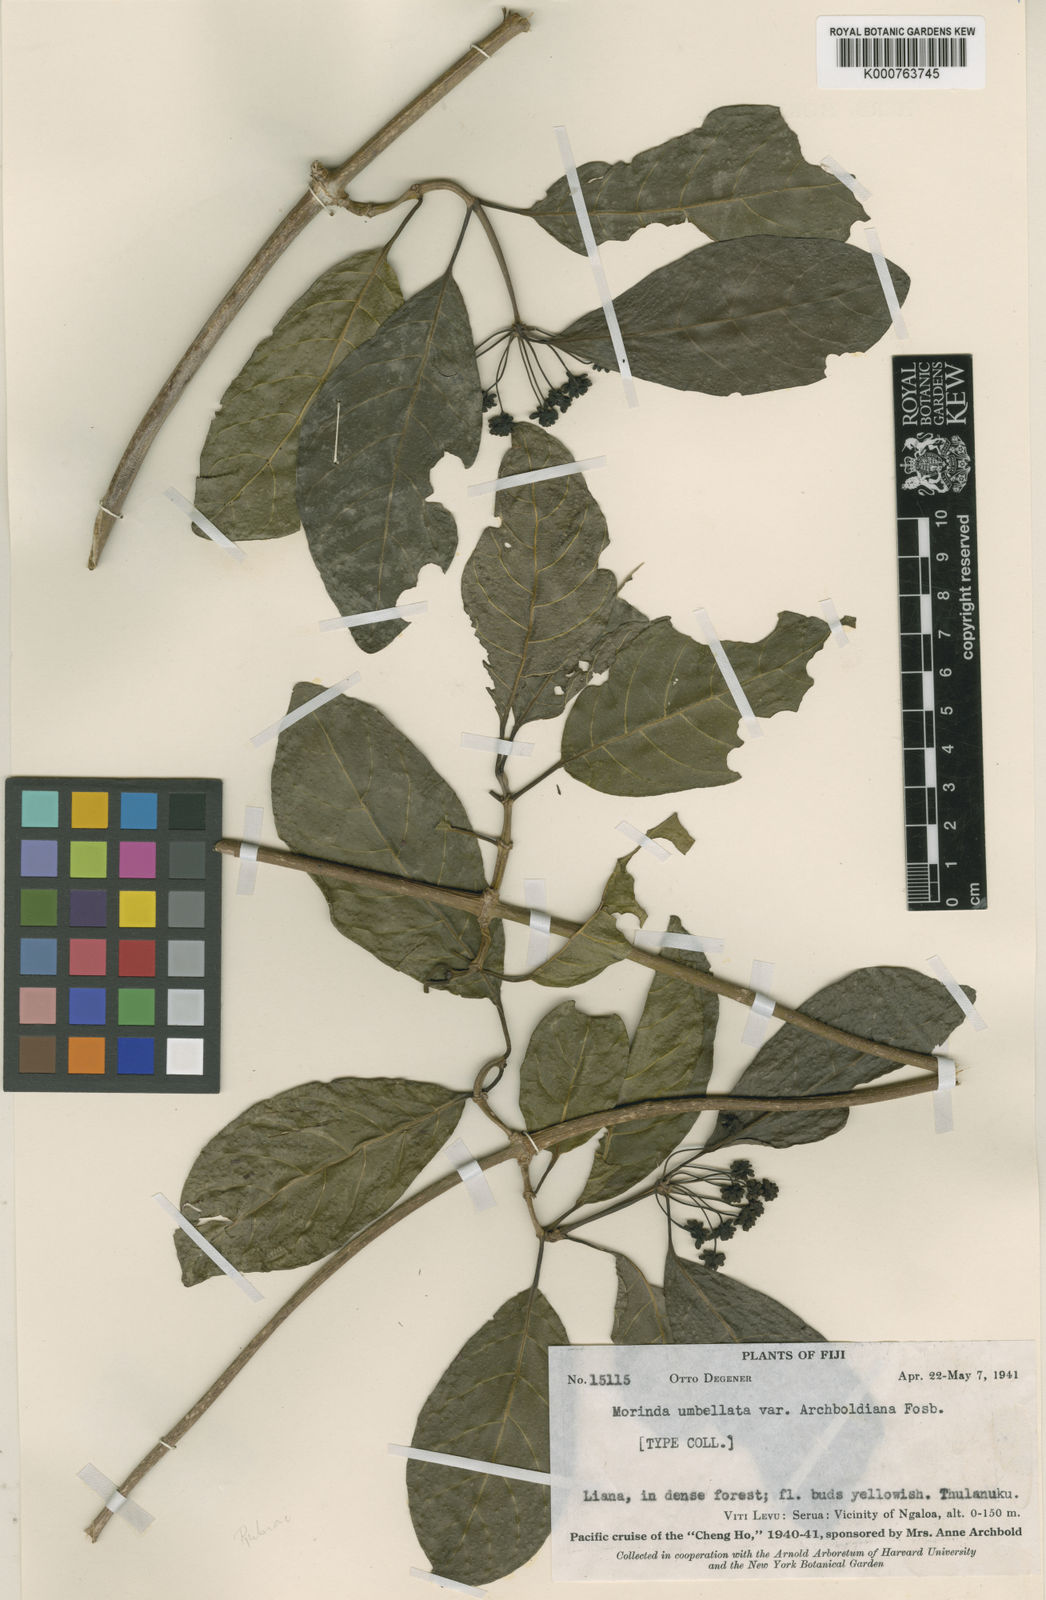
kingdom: Plantae
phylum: Tracheophyta
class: Magnoliopsida
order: Gentianales
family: Rubiaceae
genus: Gynochthodes
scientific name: Gynochthodes umbellata
